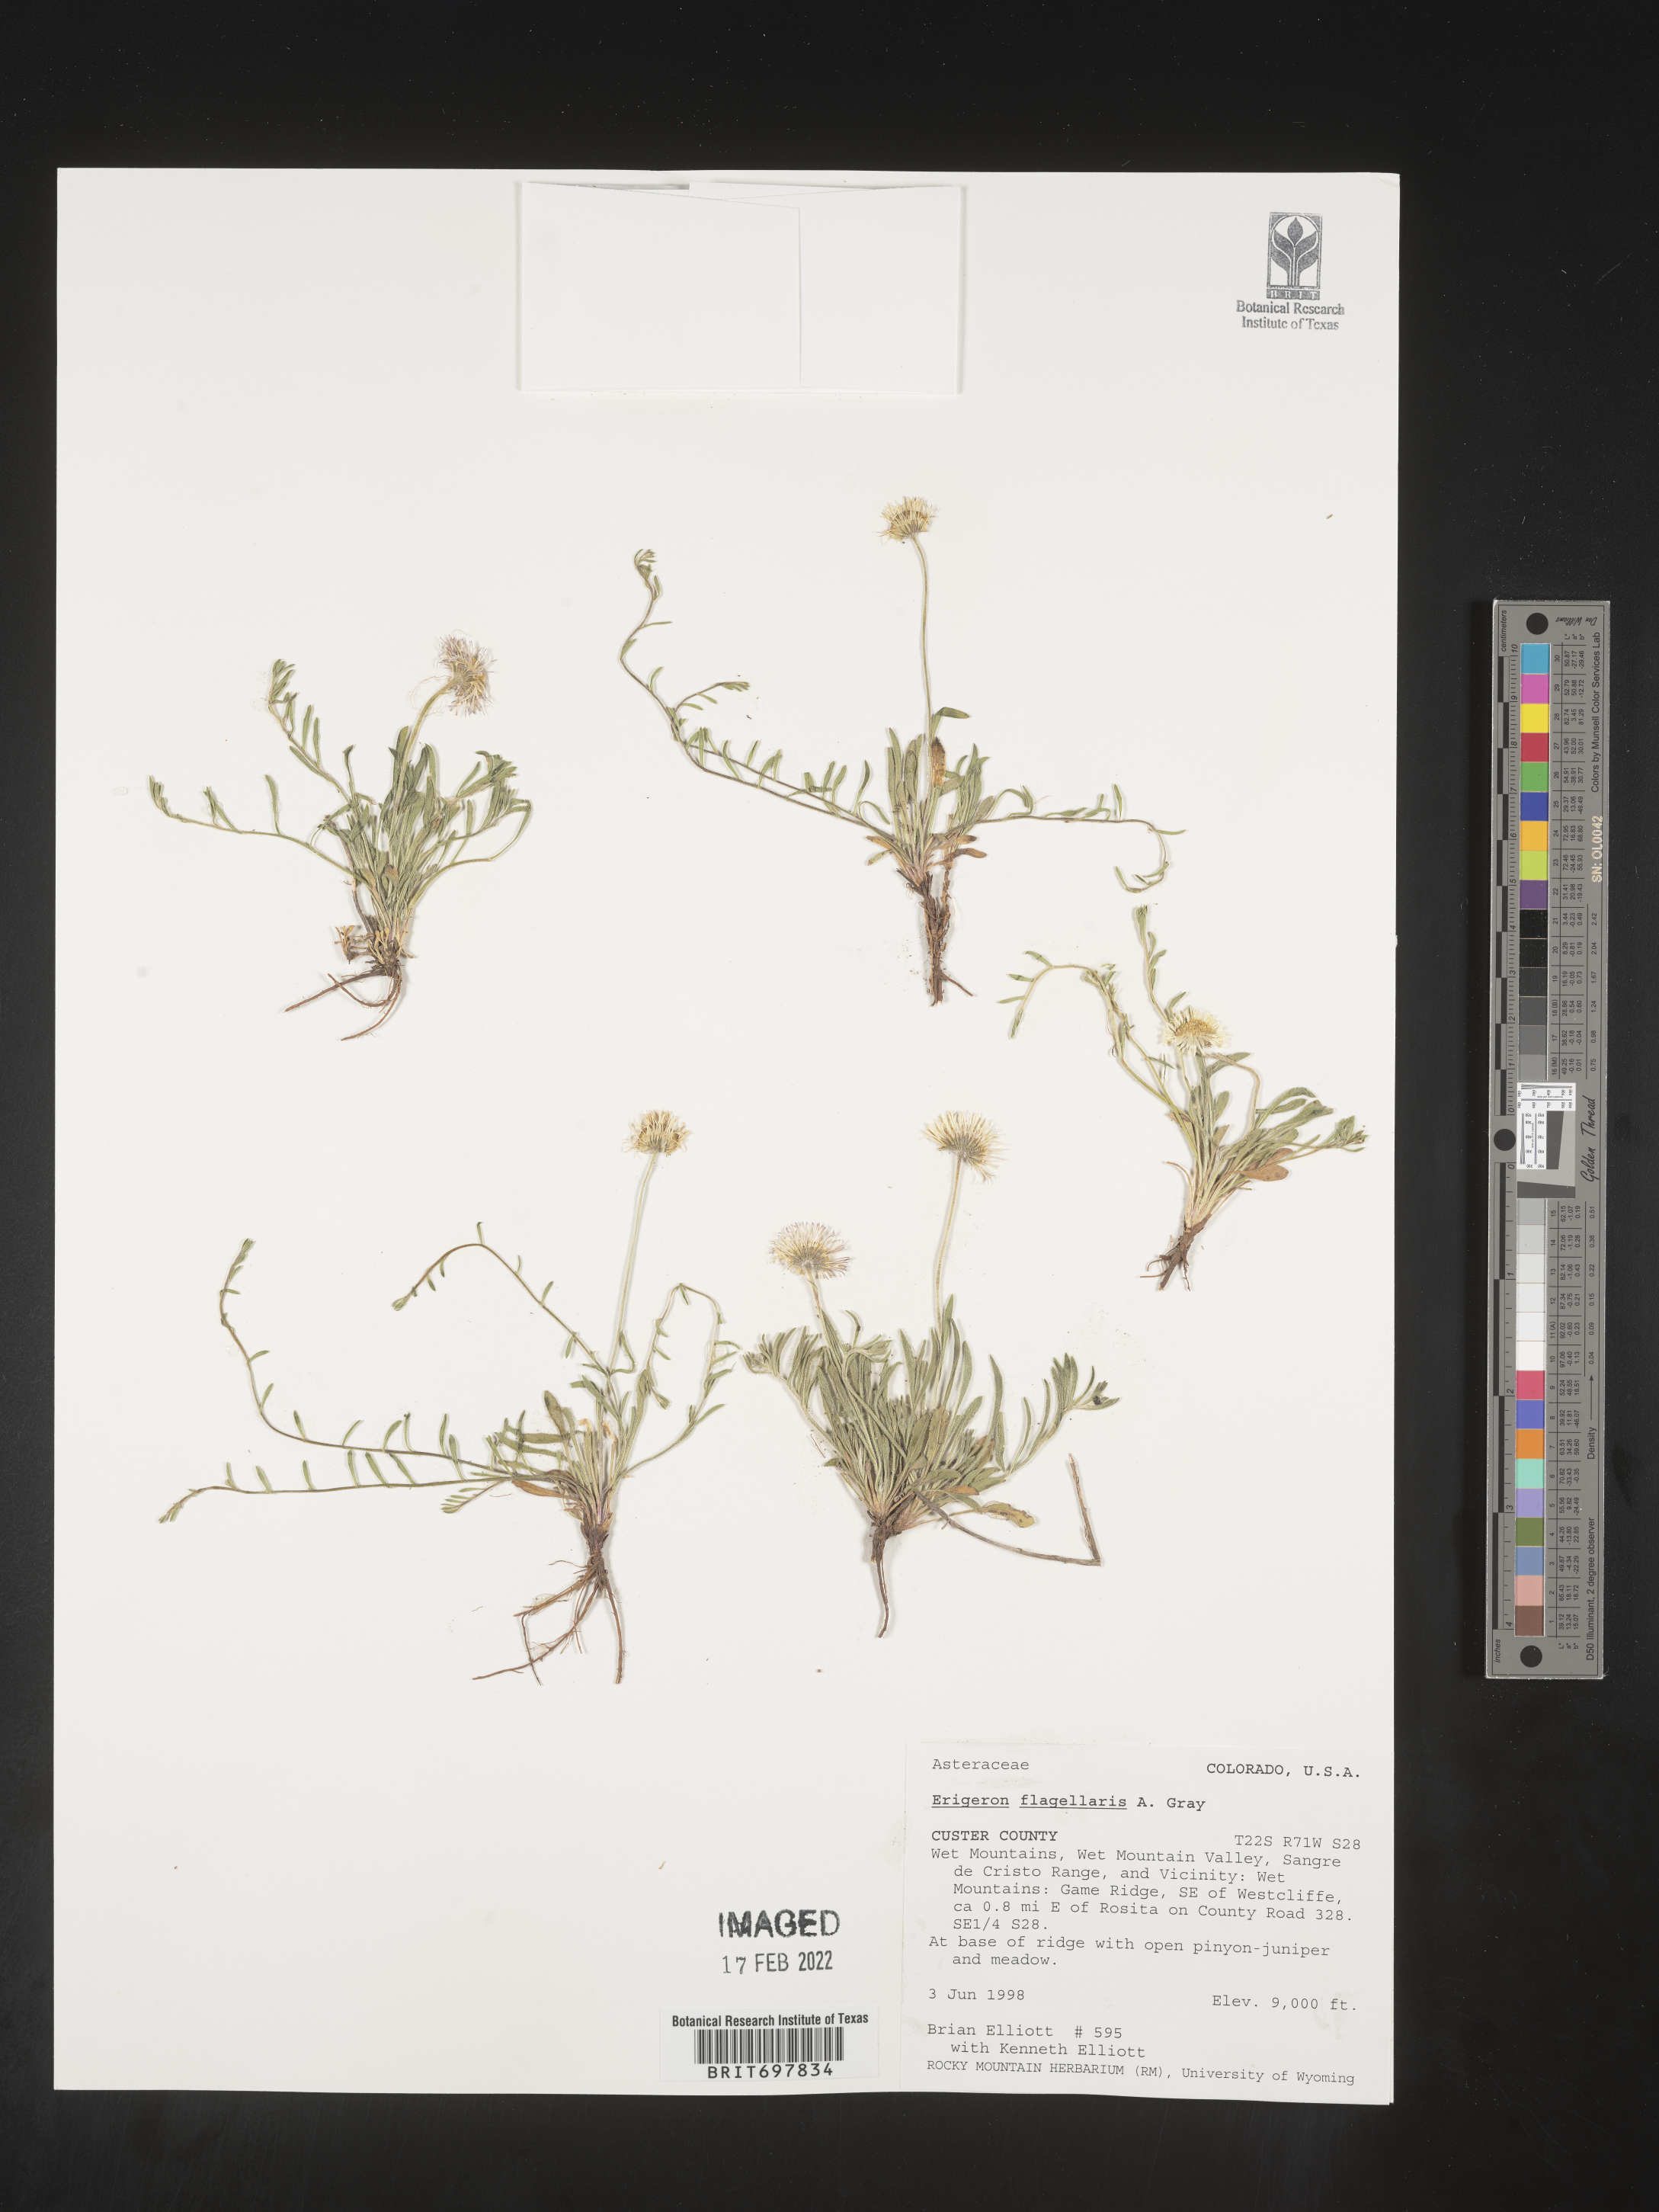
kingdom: Plantae
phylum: Tracheophyta
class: Magnoliopsida
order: Asterales
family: Asteraceae
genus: Erigeron
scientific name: Erigeron flagellaris
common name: Running fleabane
